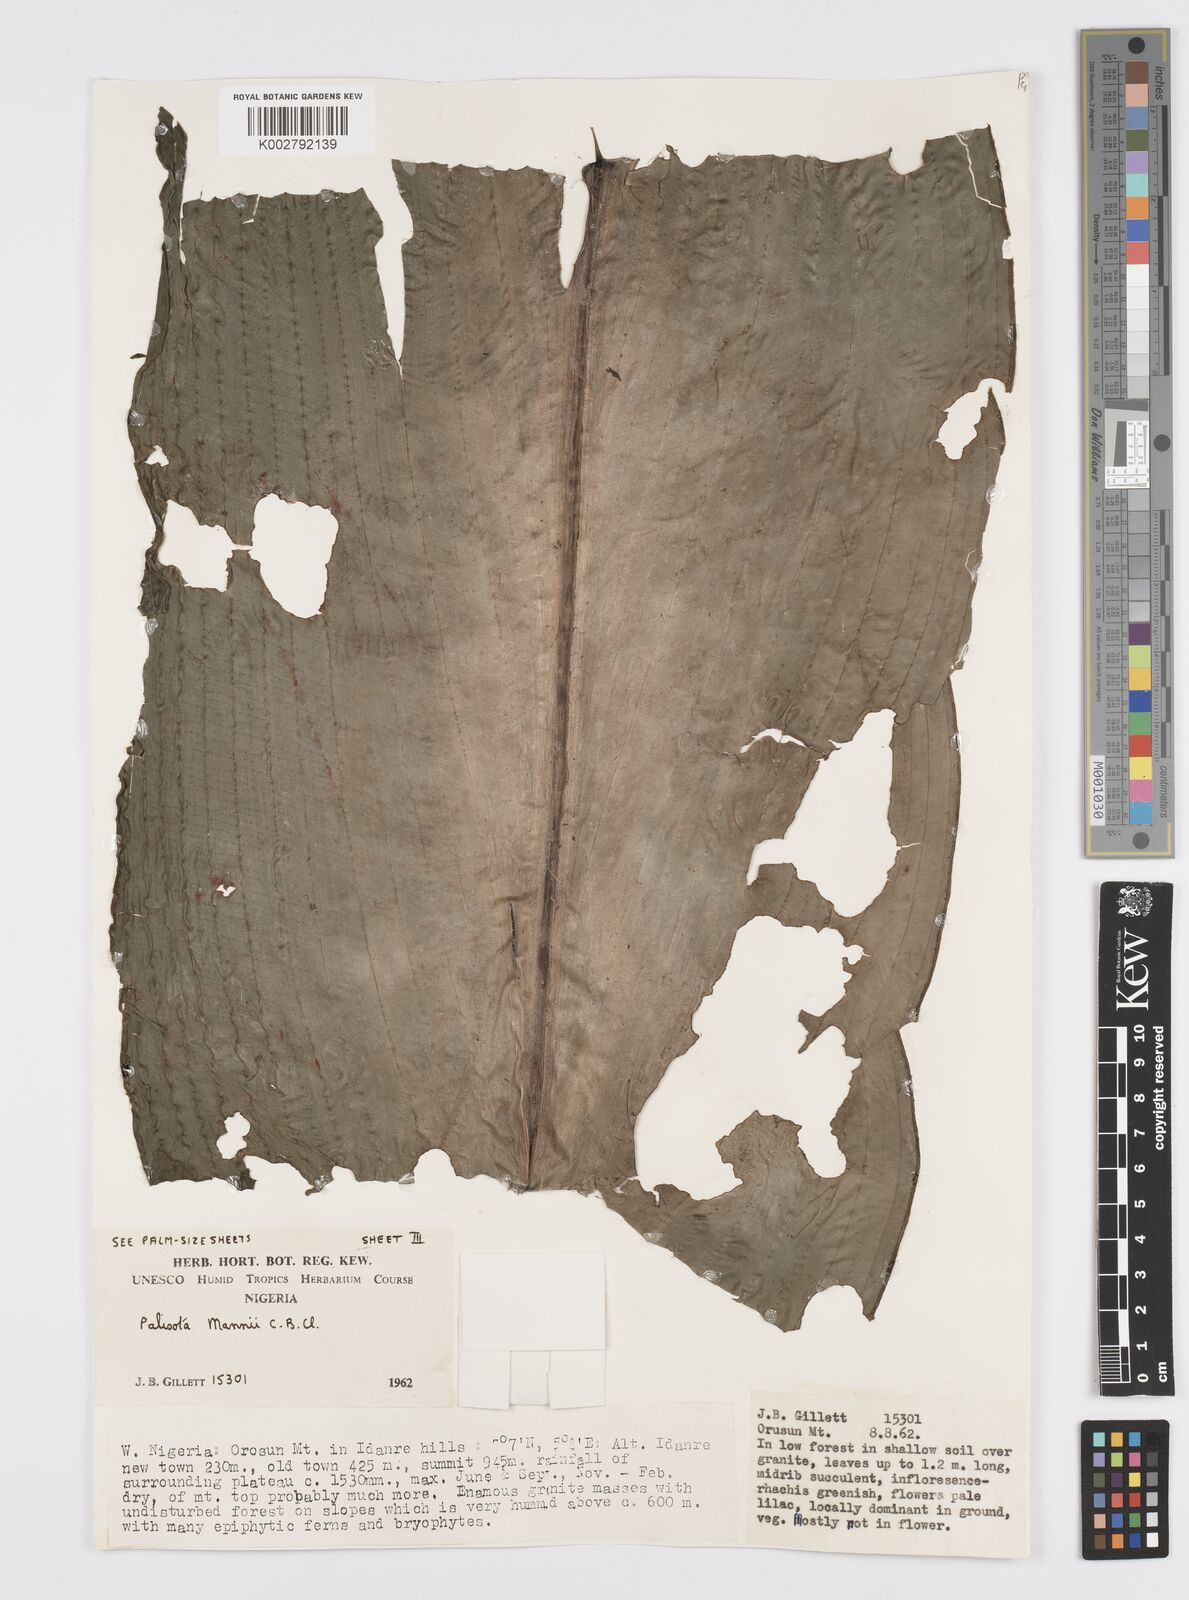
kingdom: Plantae
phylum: Tracheophyta
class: Liliopsida
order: Commelinales
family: Commelinaceae
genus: Palisota
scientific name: Palisota mannii
